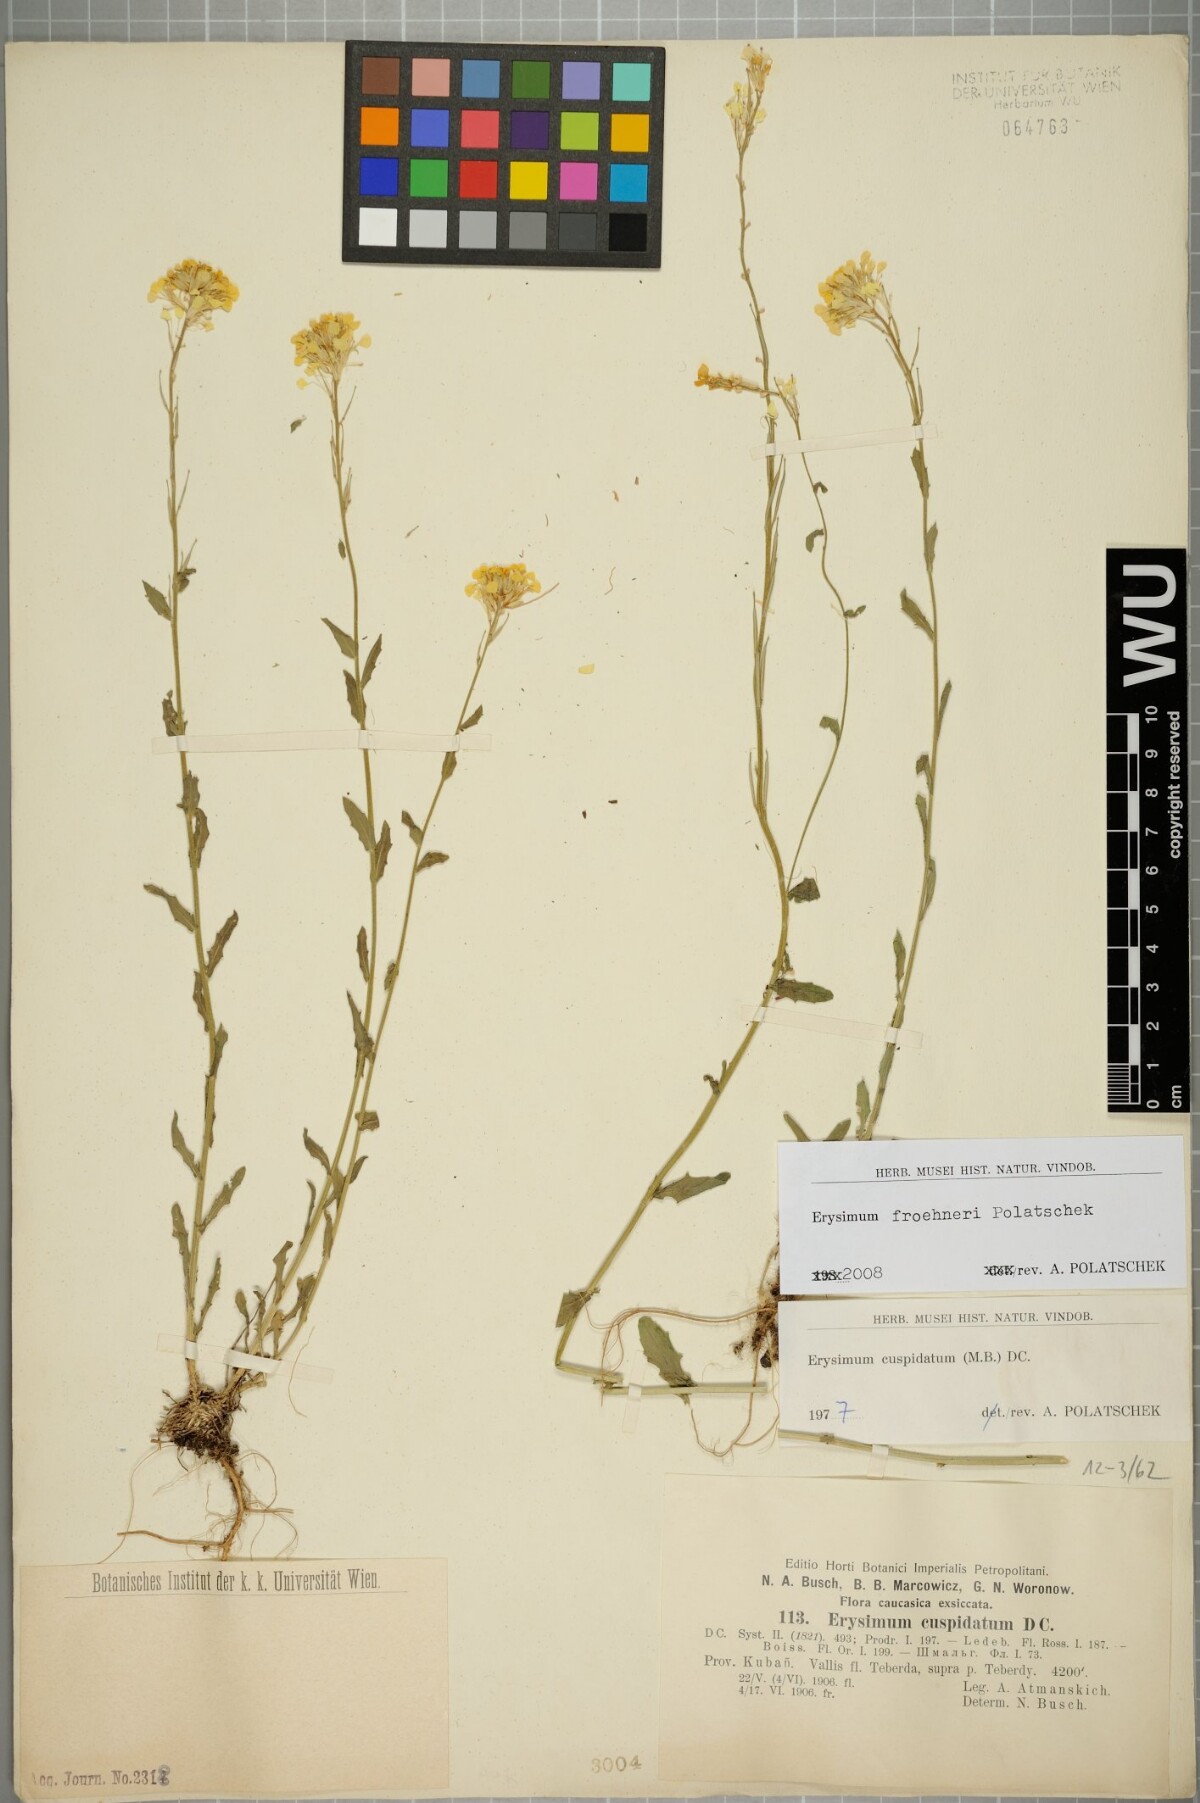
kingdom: Plantae
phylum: Tracheophyta
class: Magnoliopsida
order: Brassicales
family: Brassicaceae
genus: Erysimum
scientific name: Erysimum froehneri
